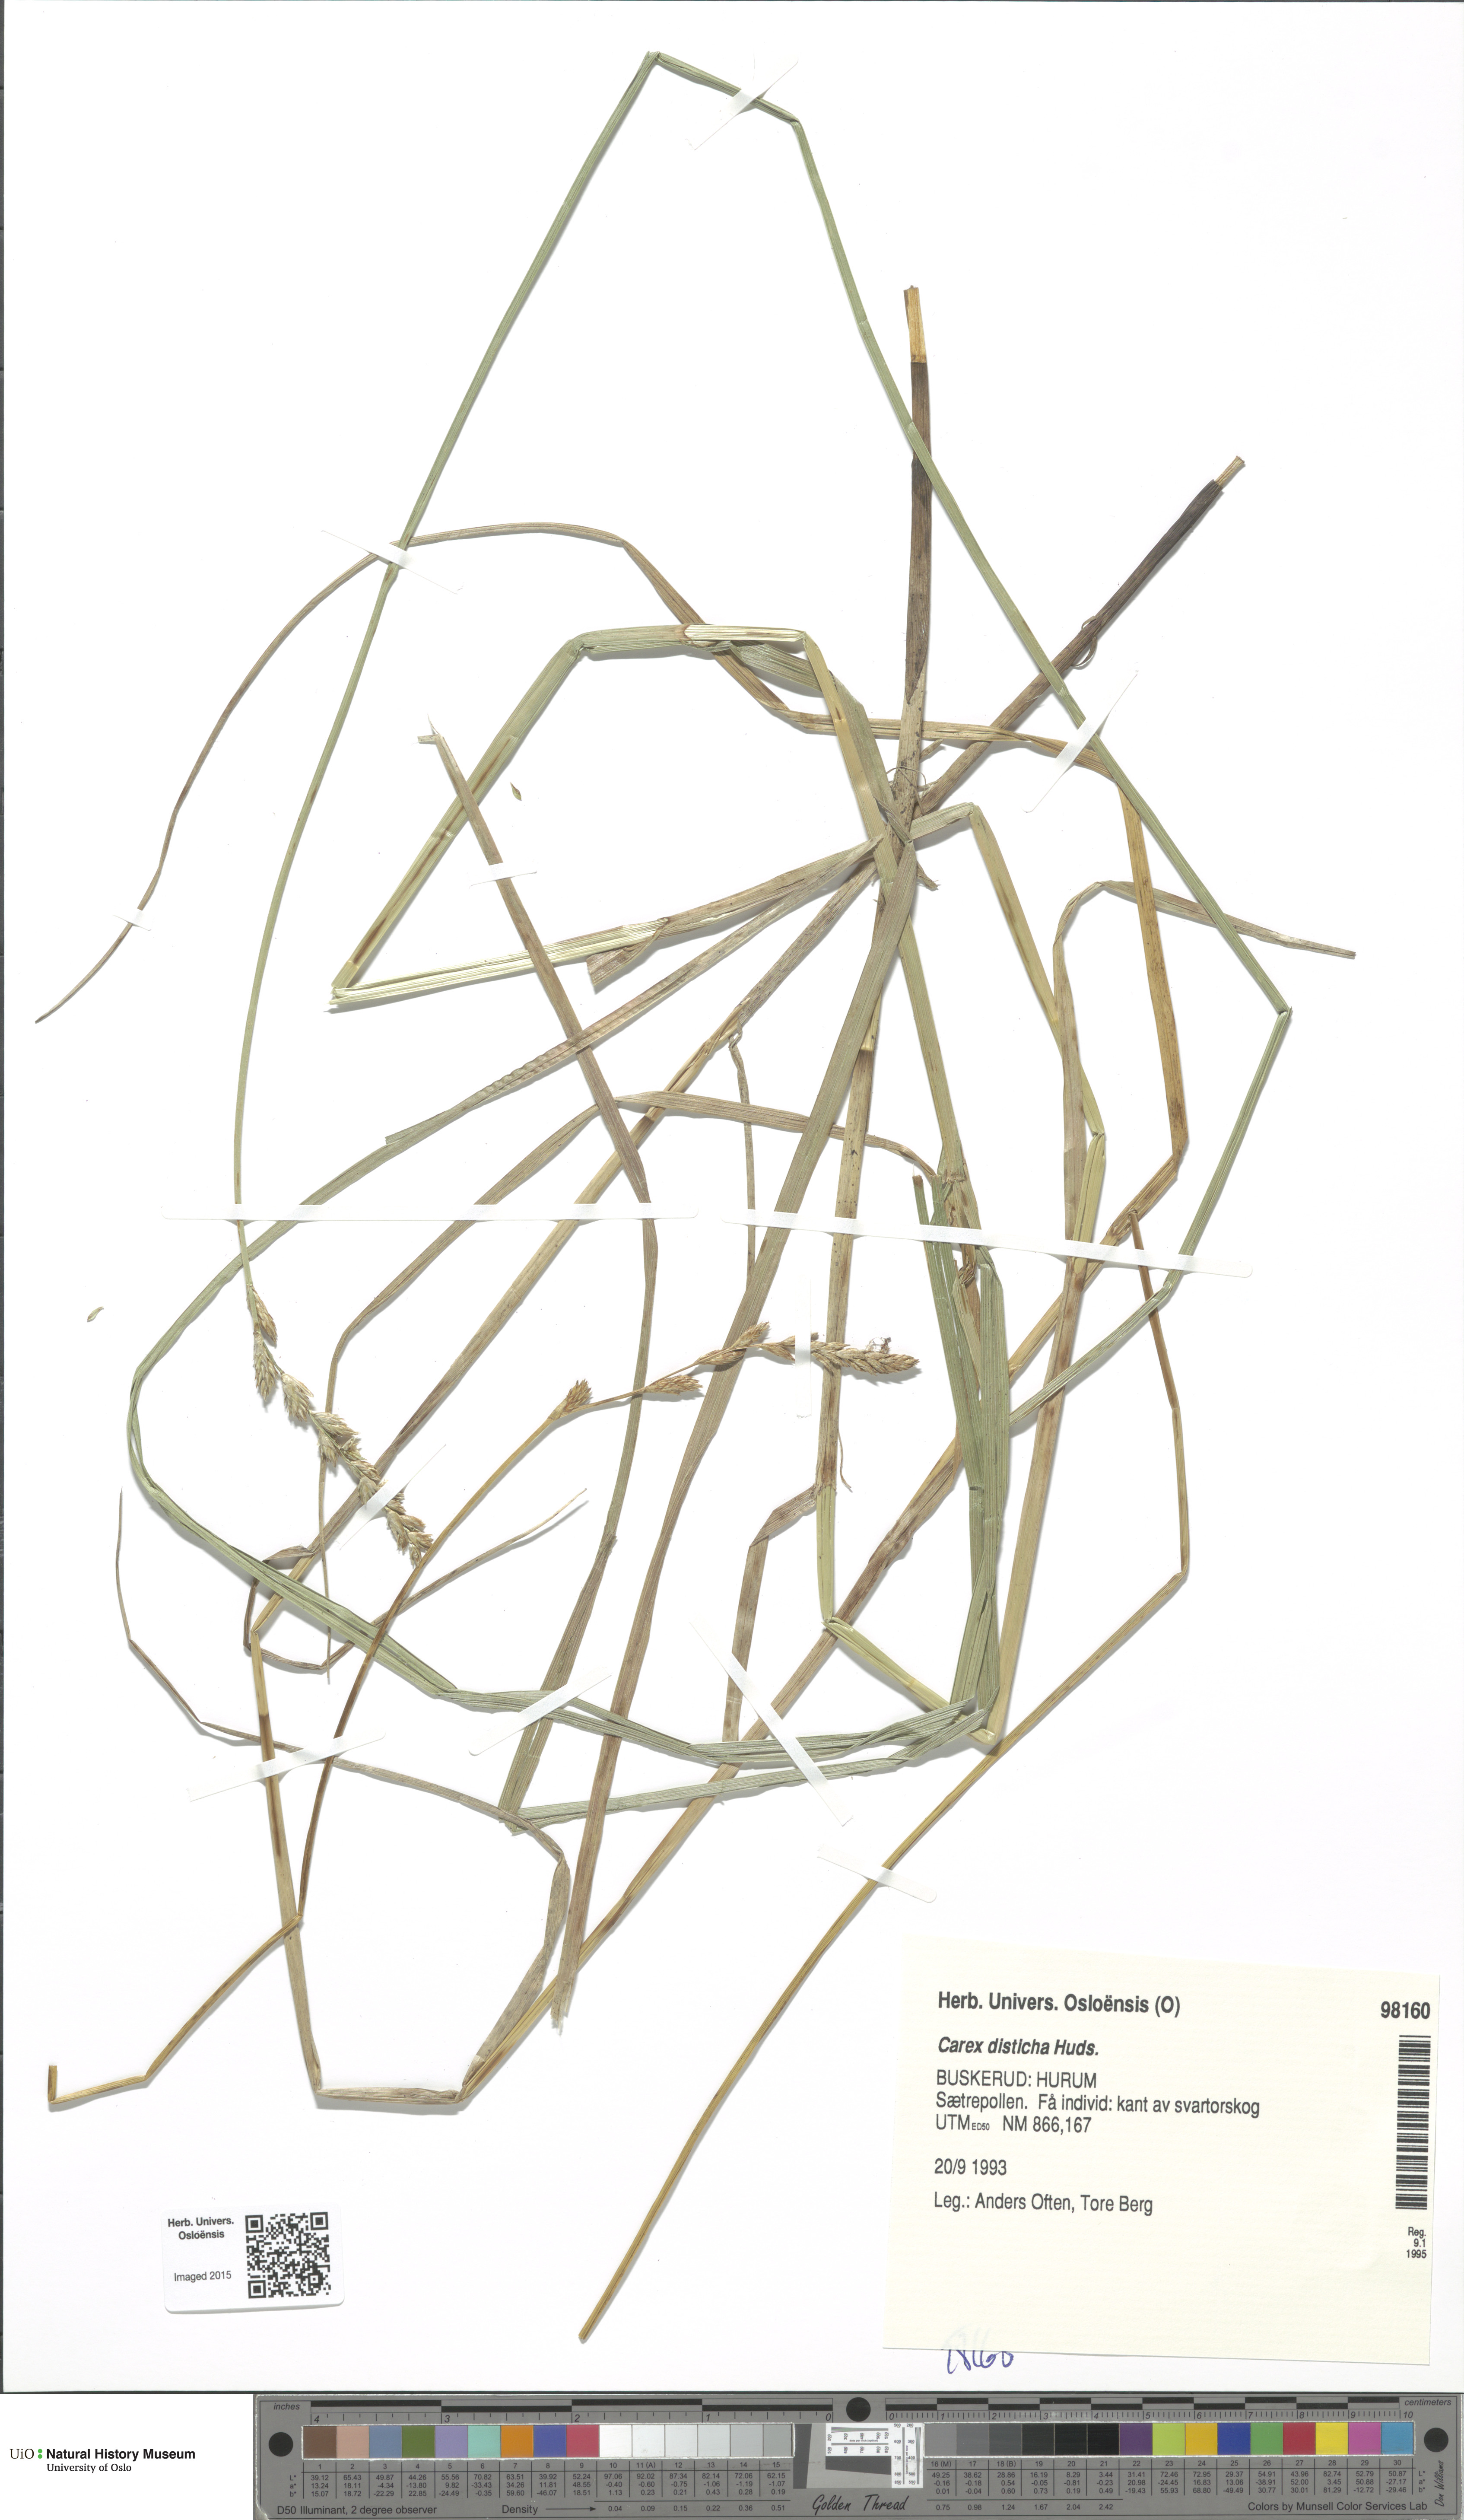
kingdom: Plantae
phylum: Tracheophyta
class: Liliopsida
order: Poales
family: Cyperaceae
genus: Carex
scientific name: Carex disticha
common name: Brown sedge
